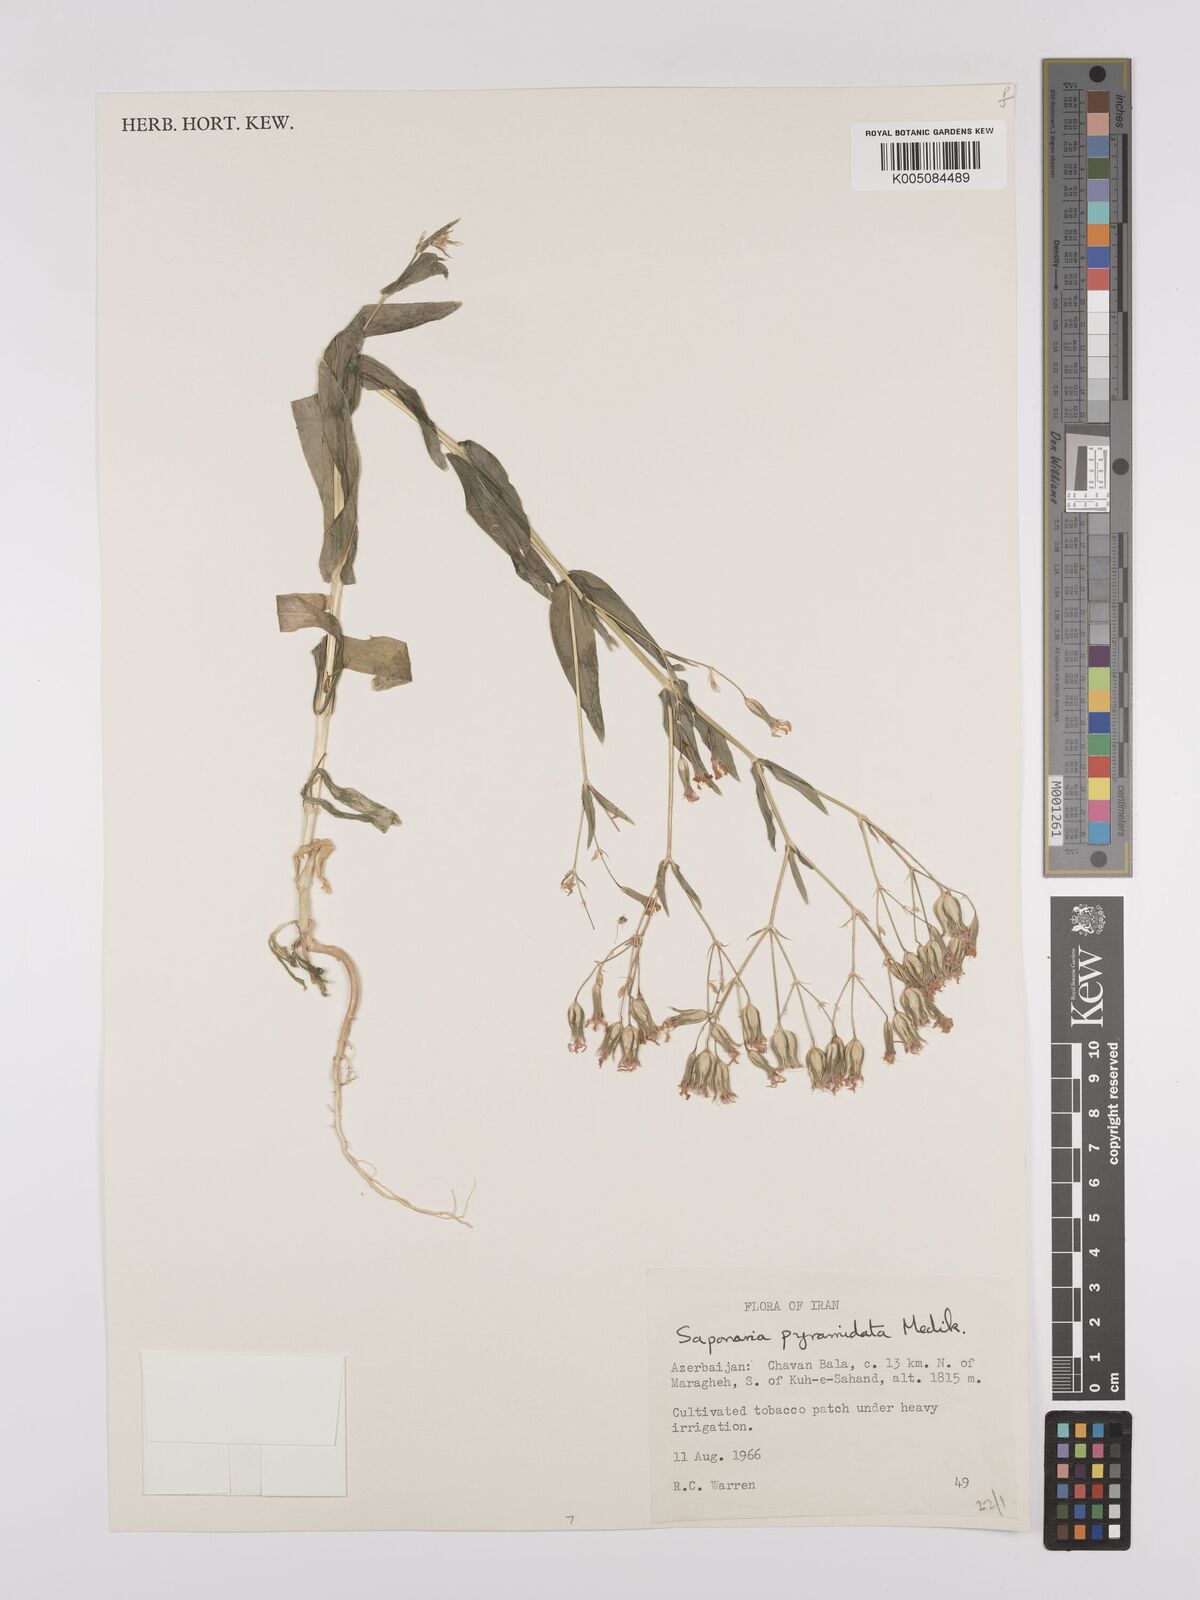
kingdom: Plantae
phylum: Tracheophyta
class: Magnoliopsida
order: Caryophyllales
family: Caryophyllaceae
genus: Gypsophila
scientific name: Gypsophila vaccaria
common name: Cow soapwort
